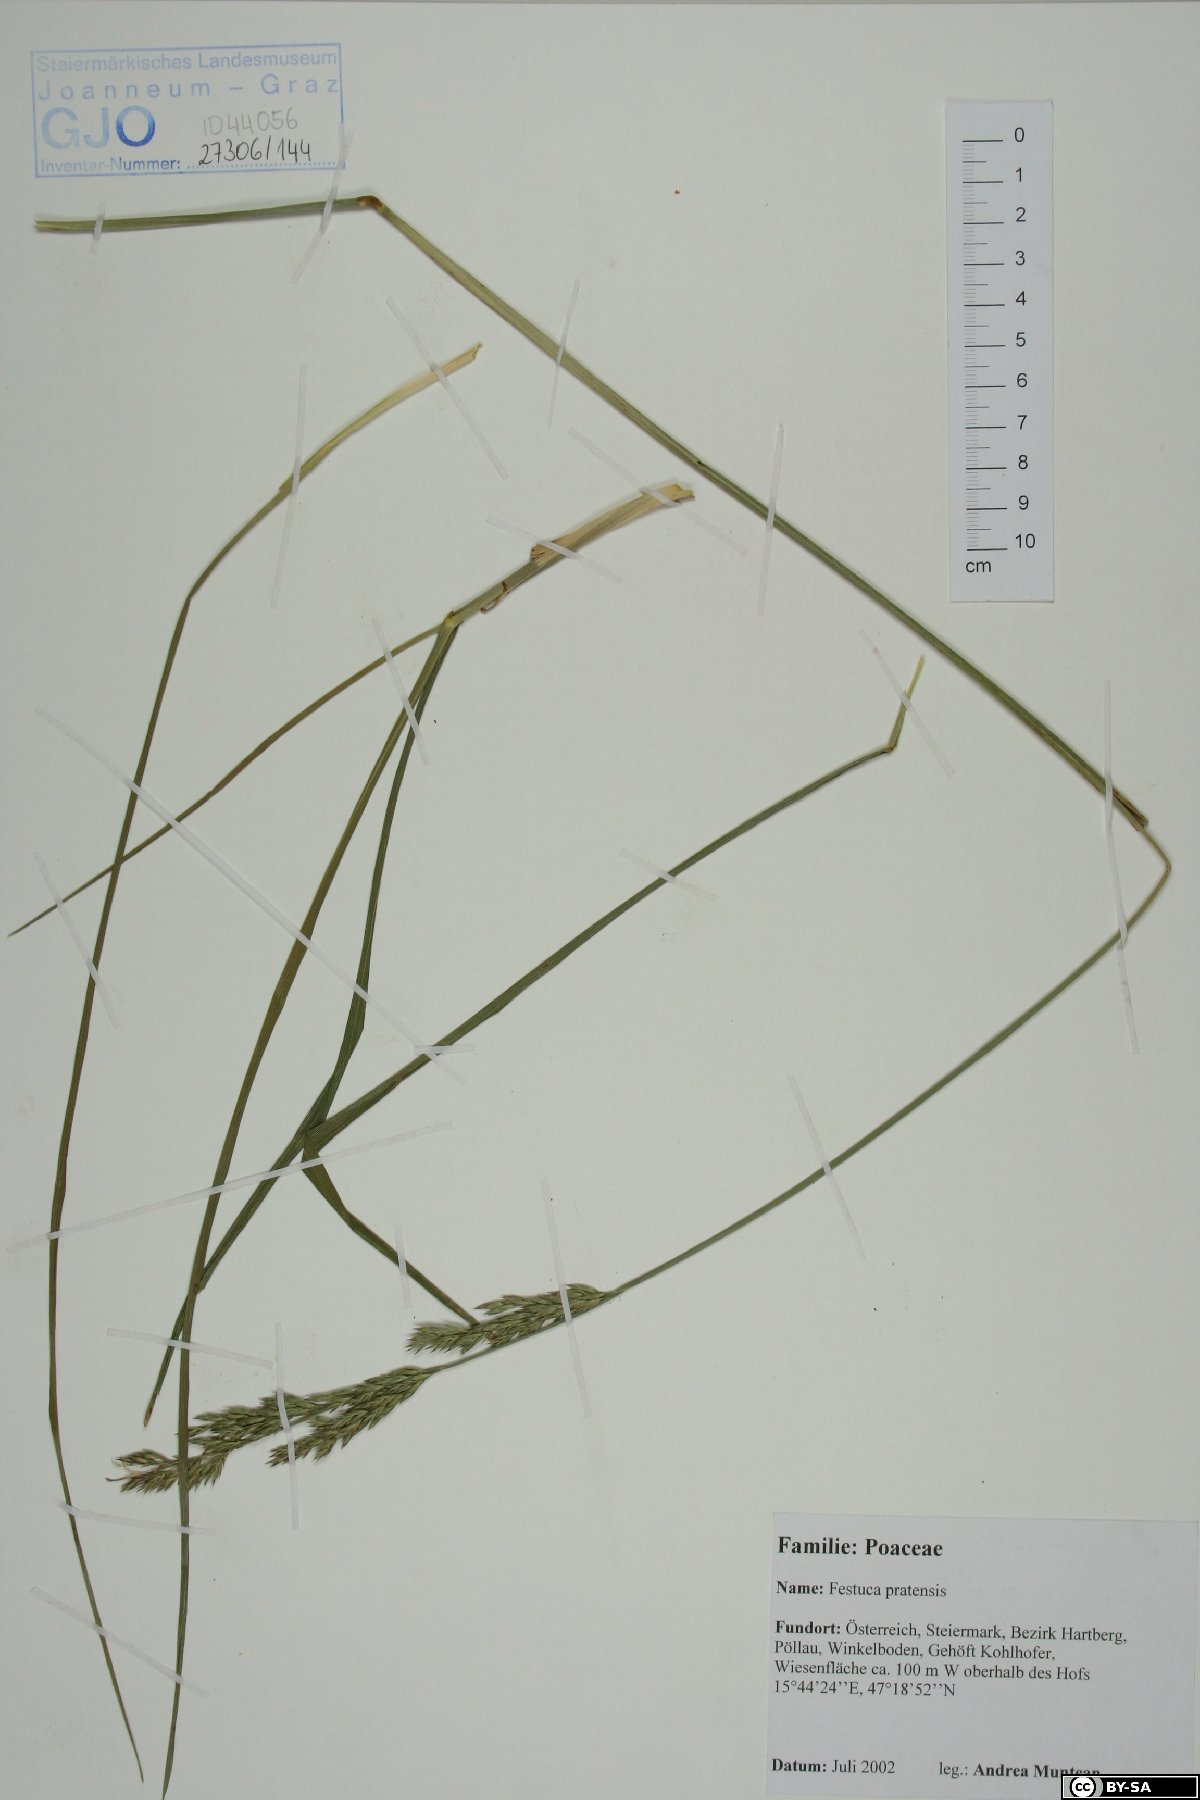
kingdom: Plantae
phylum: Tracheophyta
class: Liliopsida
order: Poales
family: Poaceae
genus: Lolium
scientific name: Lolium pratense
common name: Dover grass
